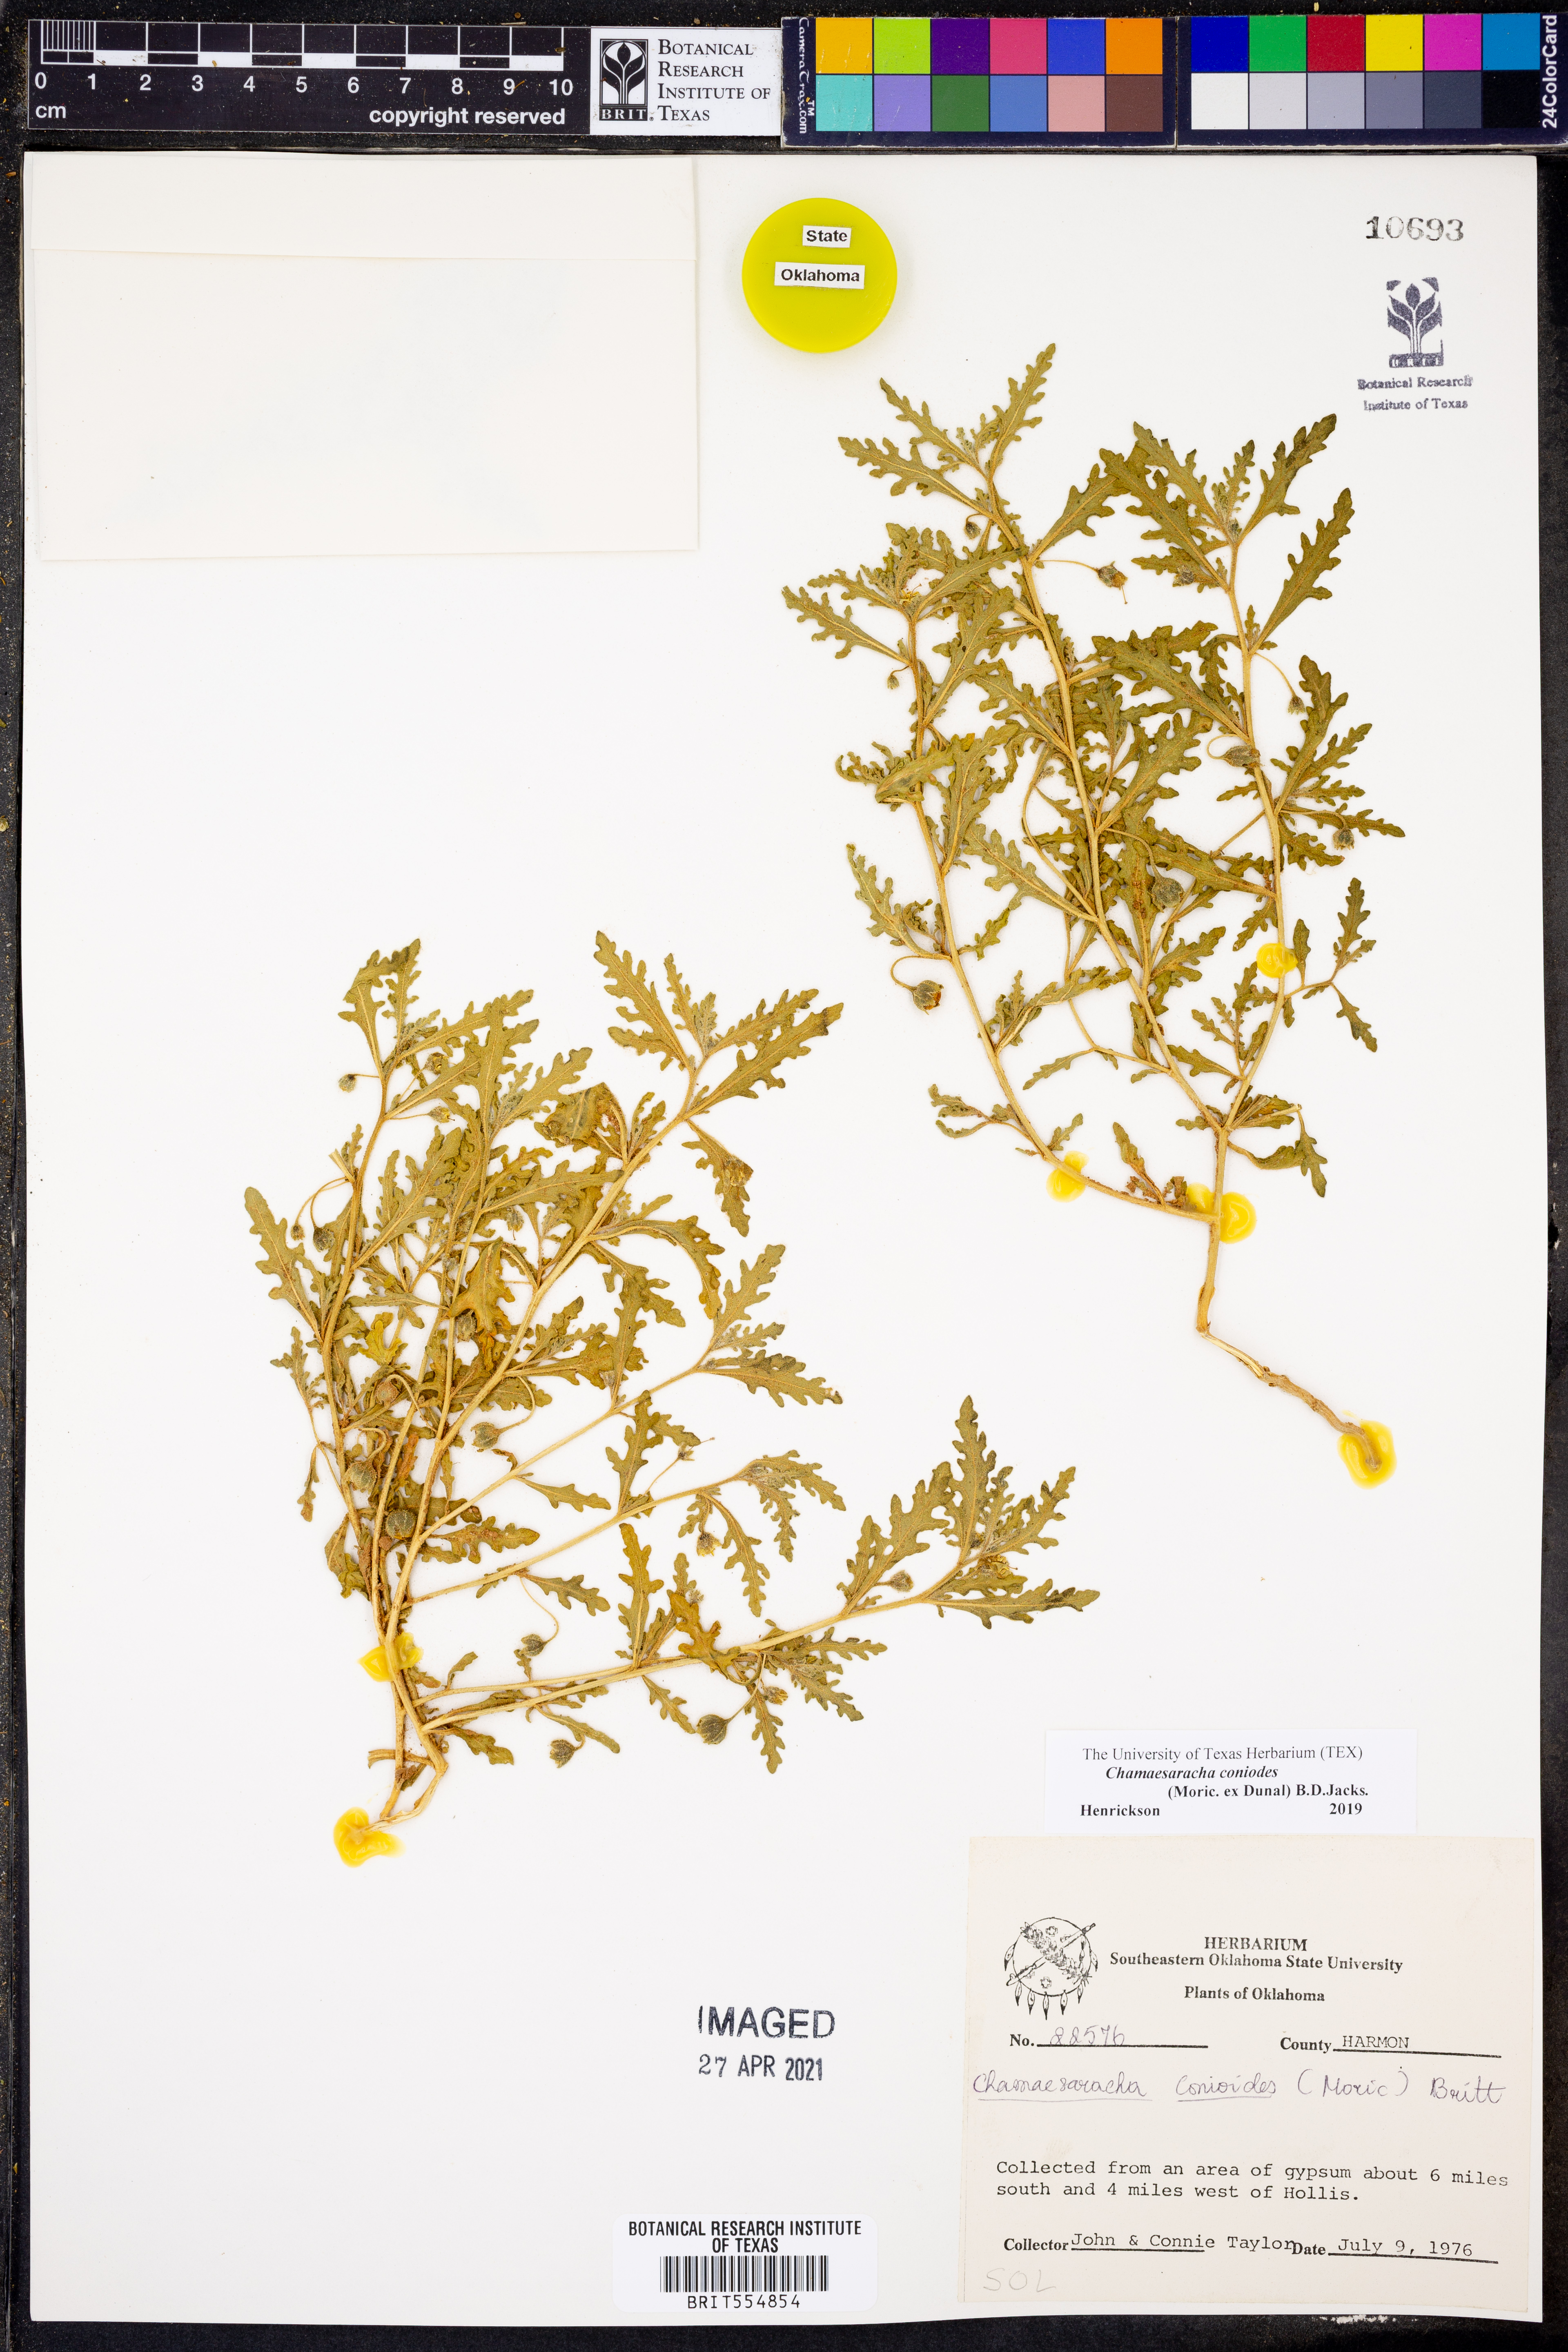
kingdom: Plantae
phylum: Tracheophyta
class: Magnoliopsida
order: Solanales
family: Solanaceae
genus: Chamaesaracha
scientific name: Chamaesaracha coniodes
